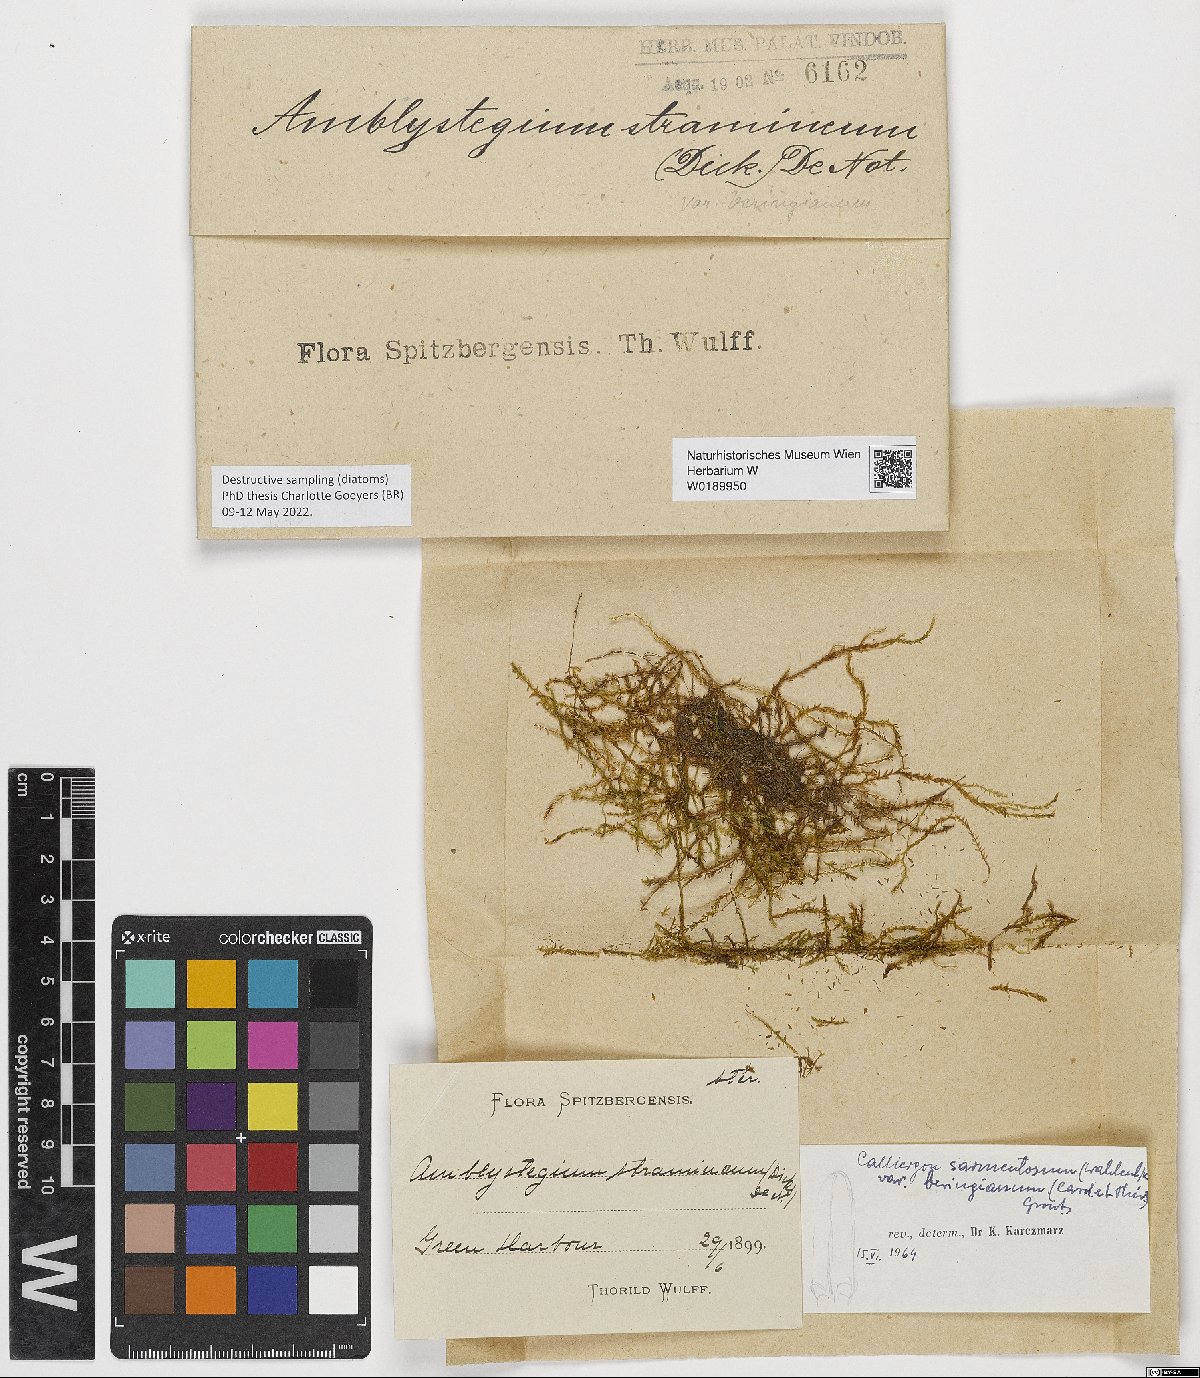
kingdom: Plantae
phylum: Bryophyta
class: Bryopsida
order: Hypnales
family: Calliergonaceae
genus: Straminergon
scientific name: Straminergon stramineum
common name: Straw moss
